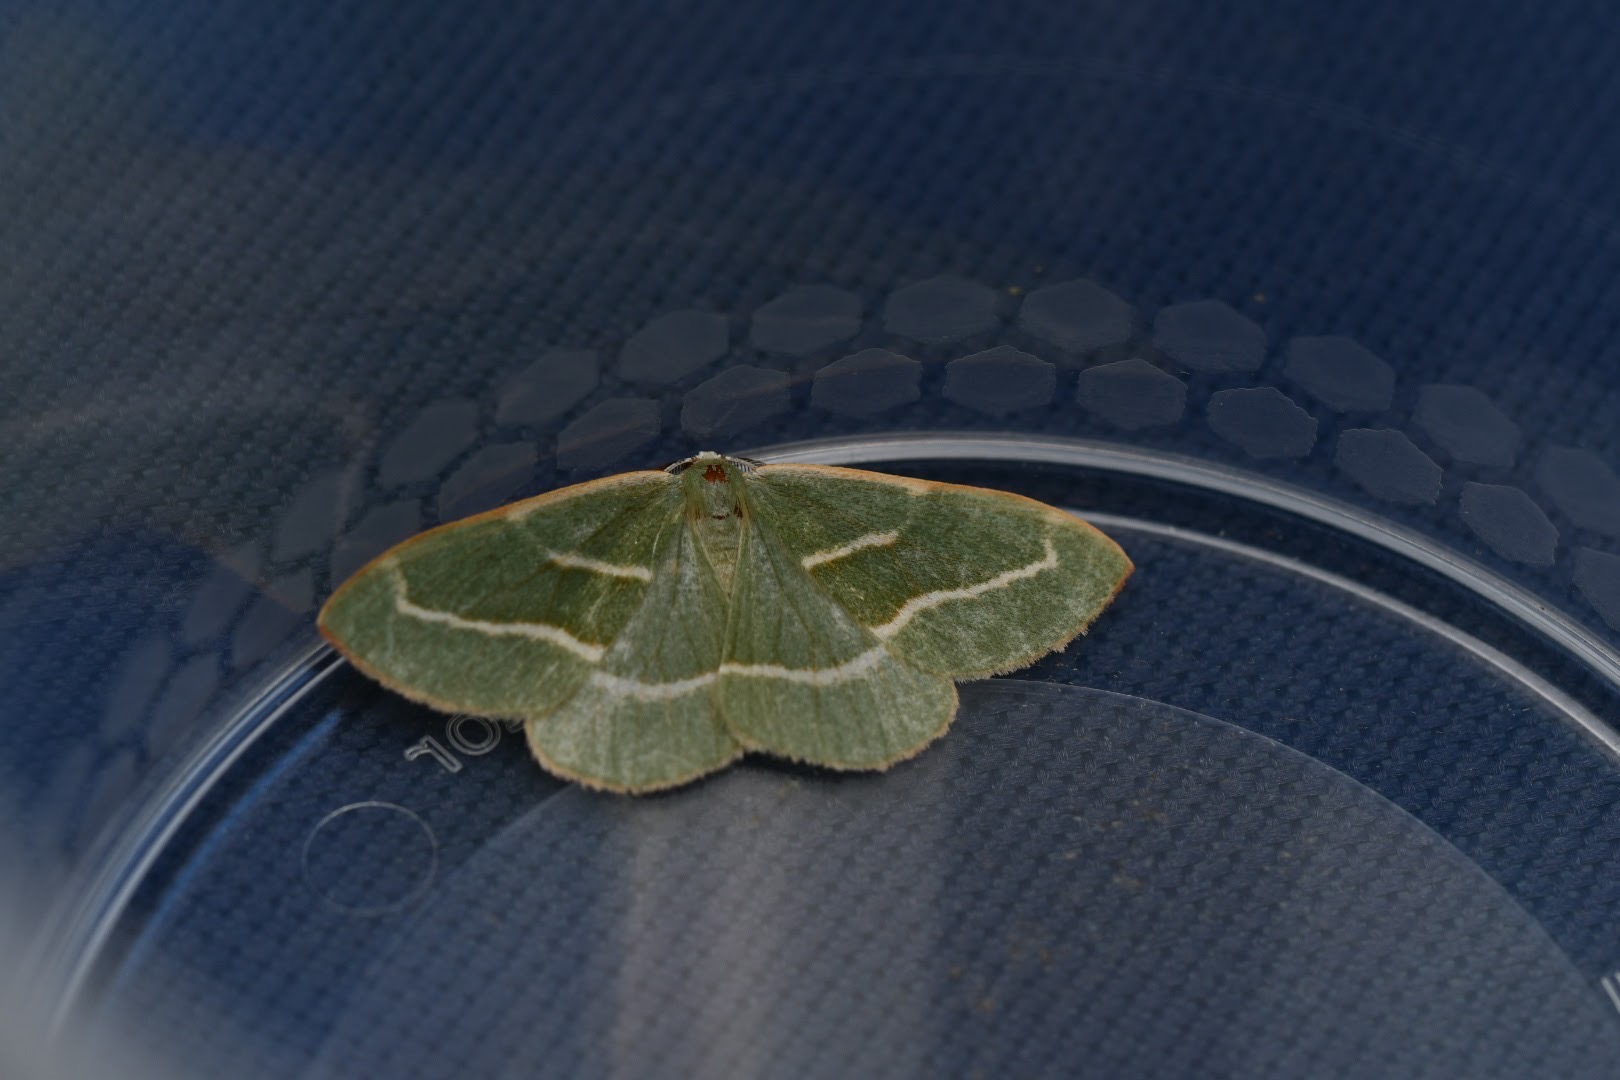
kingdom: Animalia
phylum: Arthropoda
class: Insecta
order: Lepidoptera
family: Geometridae
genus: Hylaea
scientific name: Hylaea fasciaria
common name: Nåleskovs-måler
